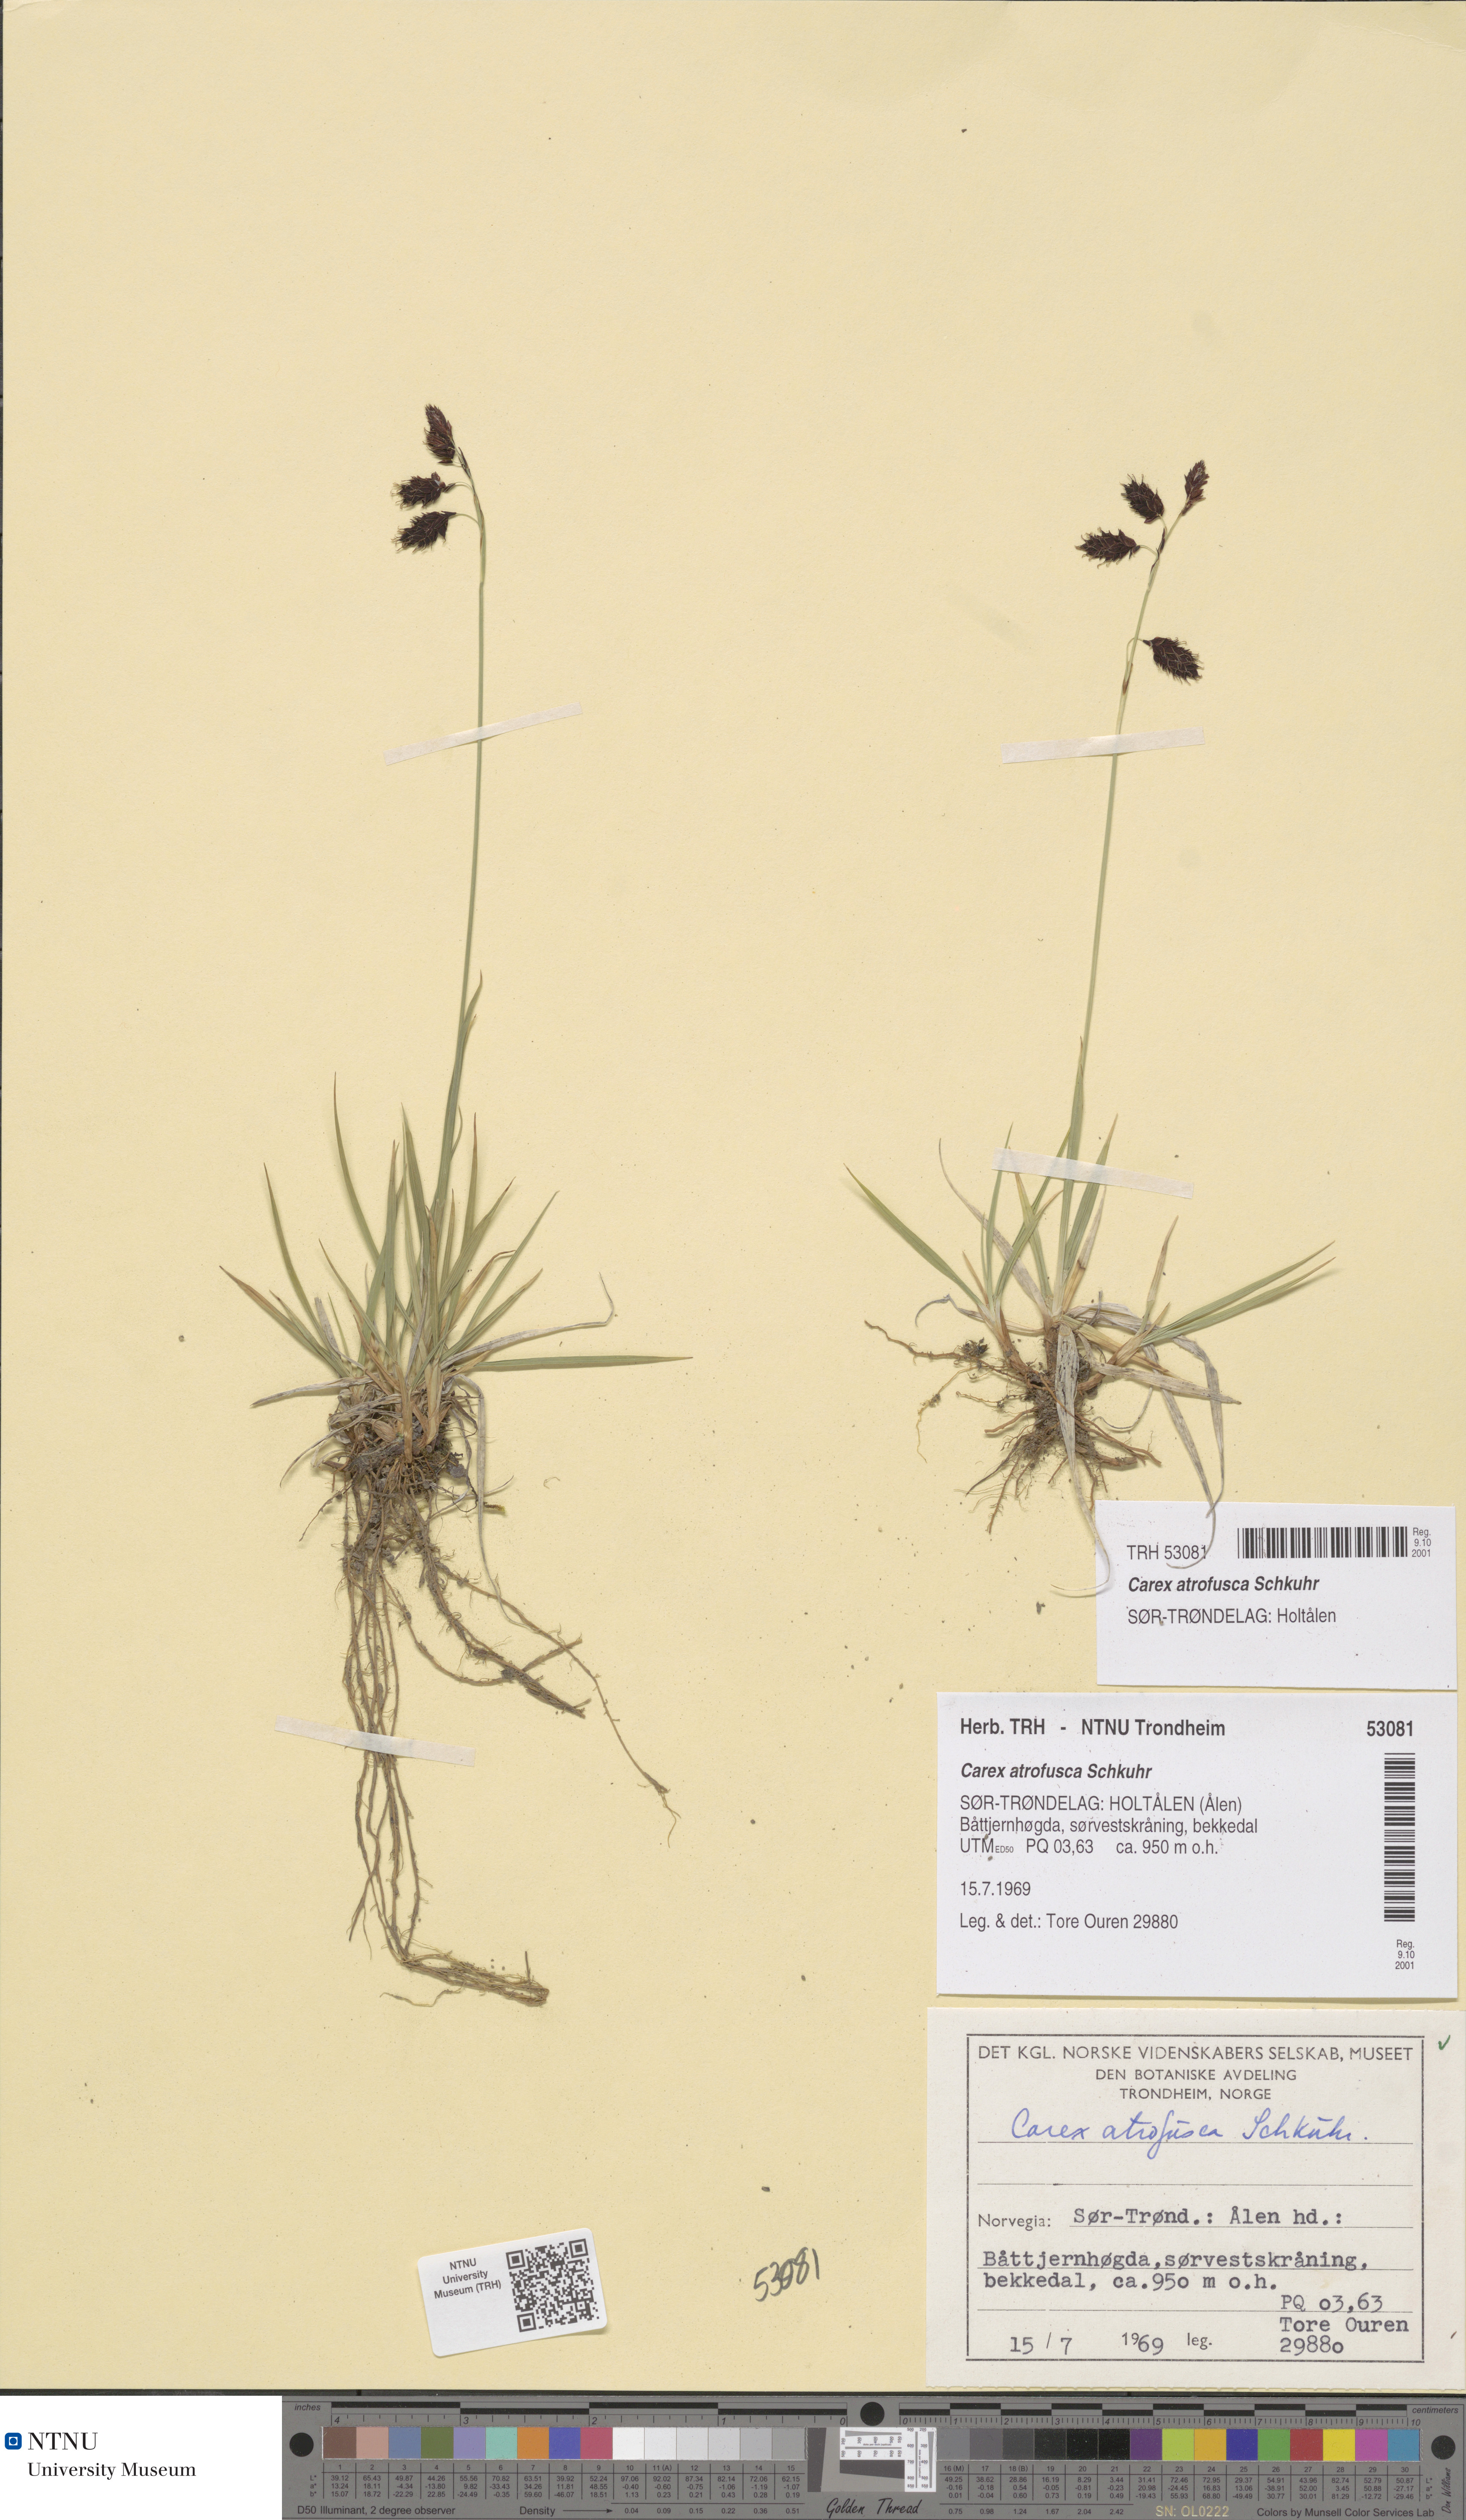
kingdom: Plantae
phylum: Tracheophyta
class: Liliopsida
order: Poales
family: Cyperaceae
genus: Carex
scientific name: Carex atrofusca
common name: Scorched alpine-sedge
